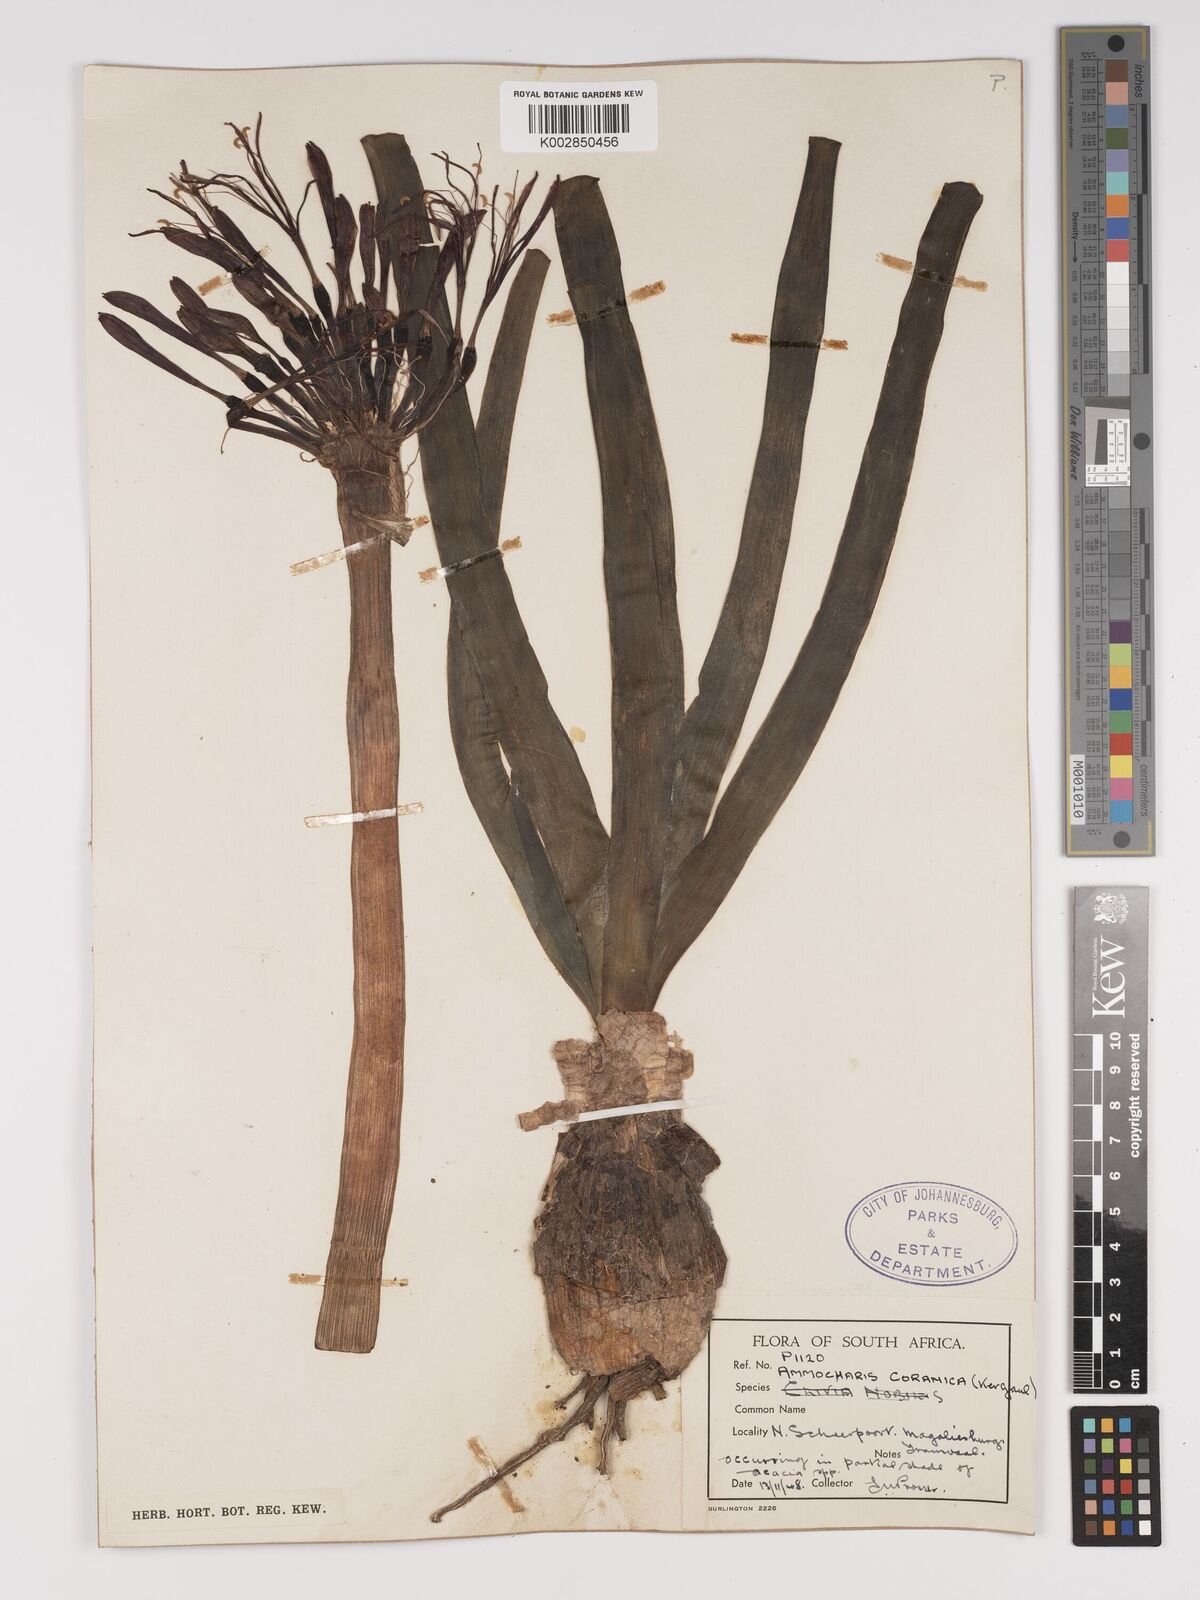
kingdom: Plantae
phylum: Tracheophyta
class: Liliopsida
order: Asparagales
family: Amaryllidaceae
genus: Ammocharis
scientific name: Ammocharis coranica
